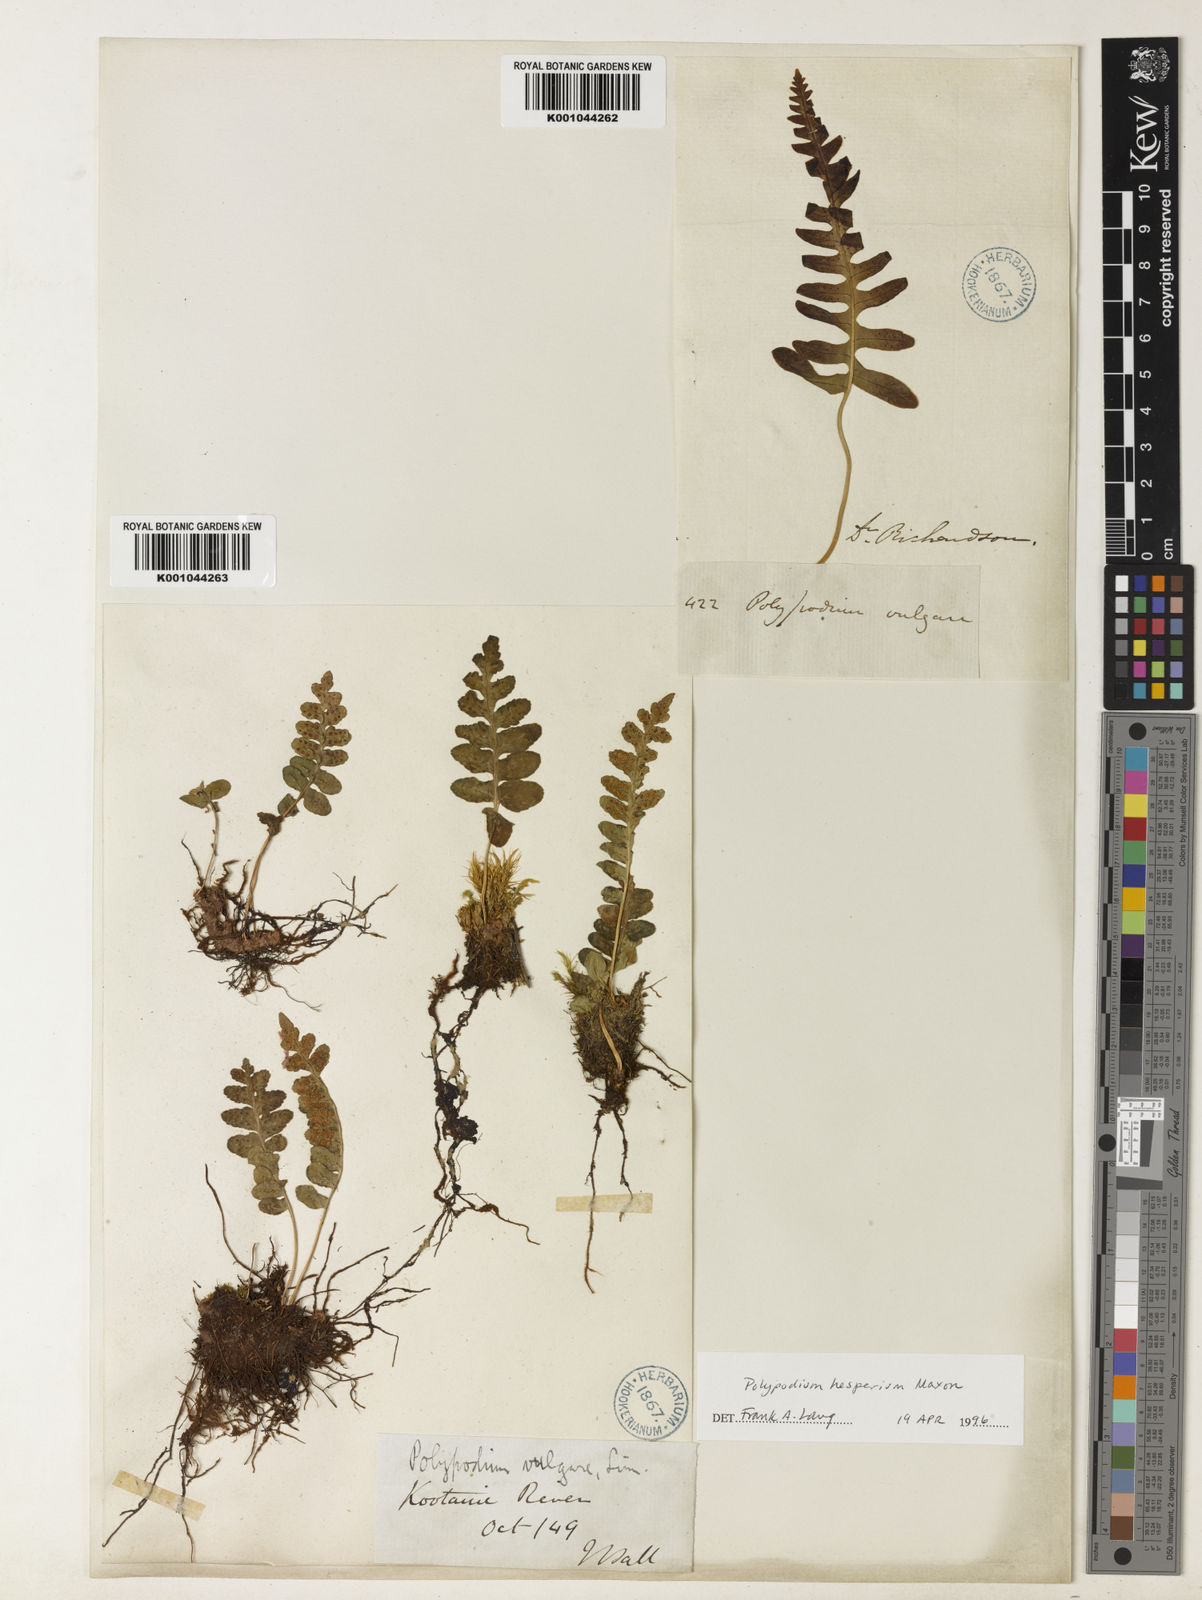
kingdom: Plantae
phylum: Tracheophyta
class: Polypodiopsida
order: Polypodiales
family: Polypodiaceae
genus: Polypodium
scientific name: Polypodium hesperium
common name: Western polypody
